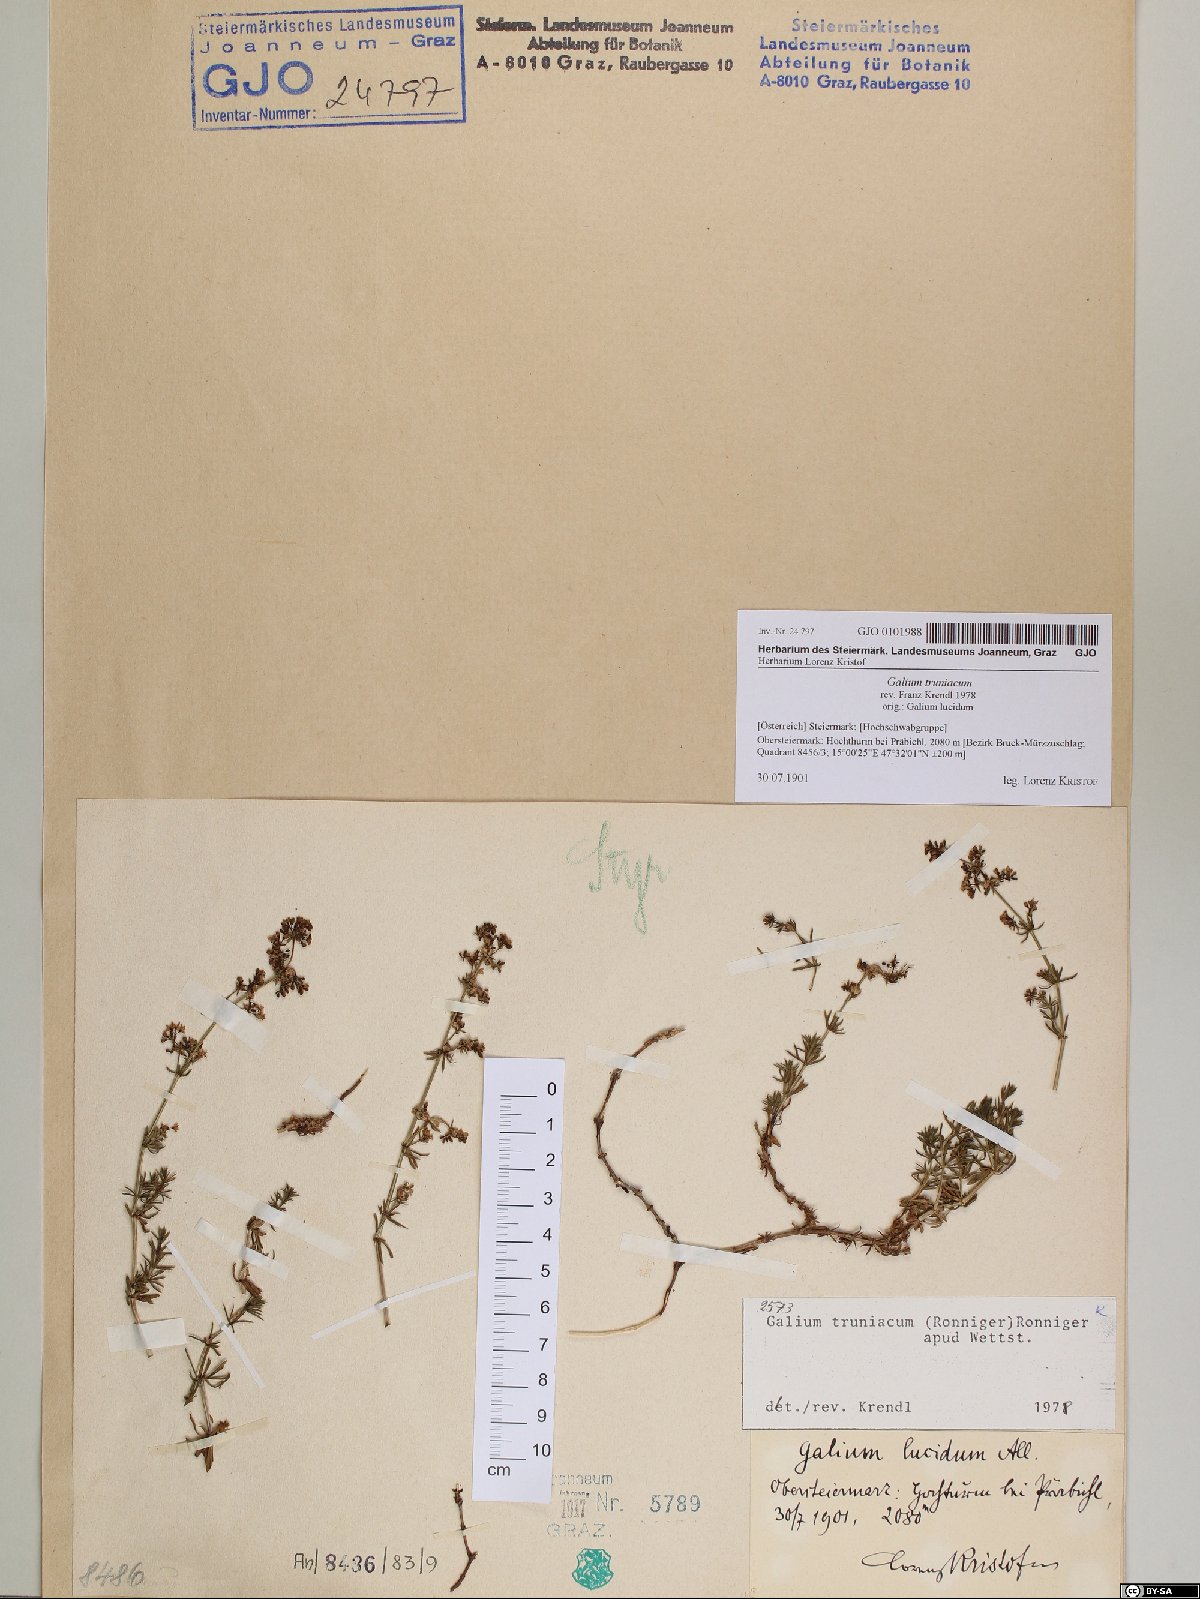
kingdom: Plantae
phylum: Tracheophyta
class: Magnoliopsida
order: Gentianales
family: Rubiaceae
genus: Galium
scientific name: Galium truniacum
